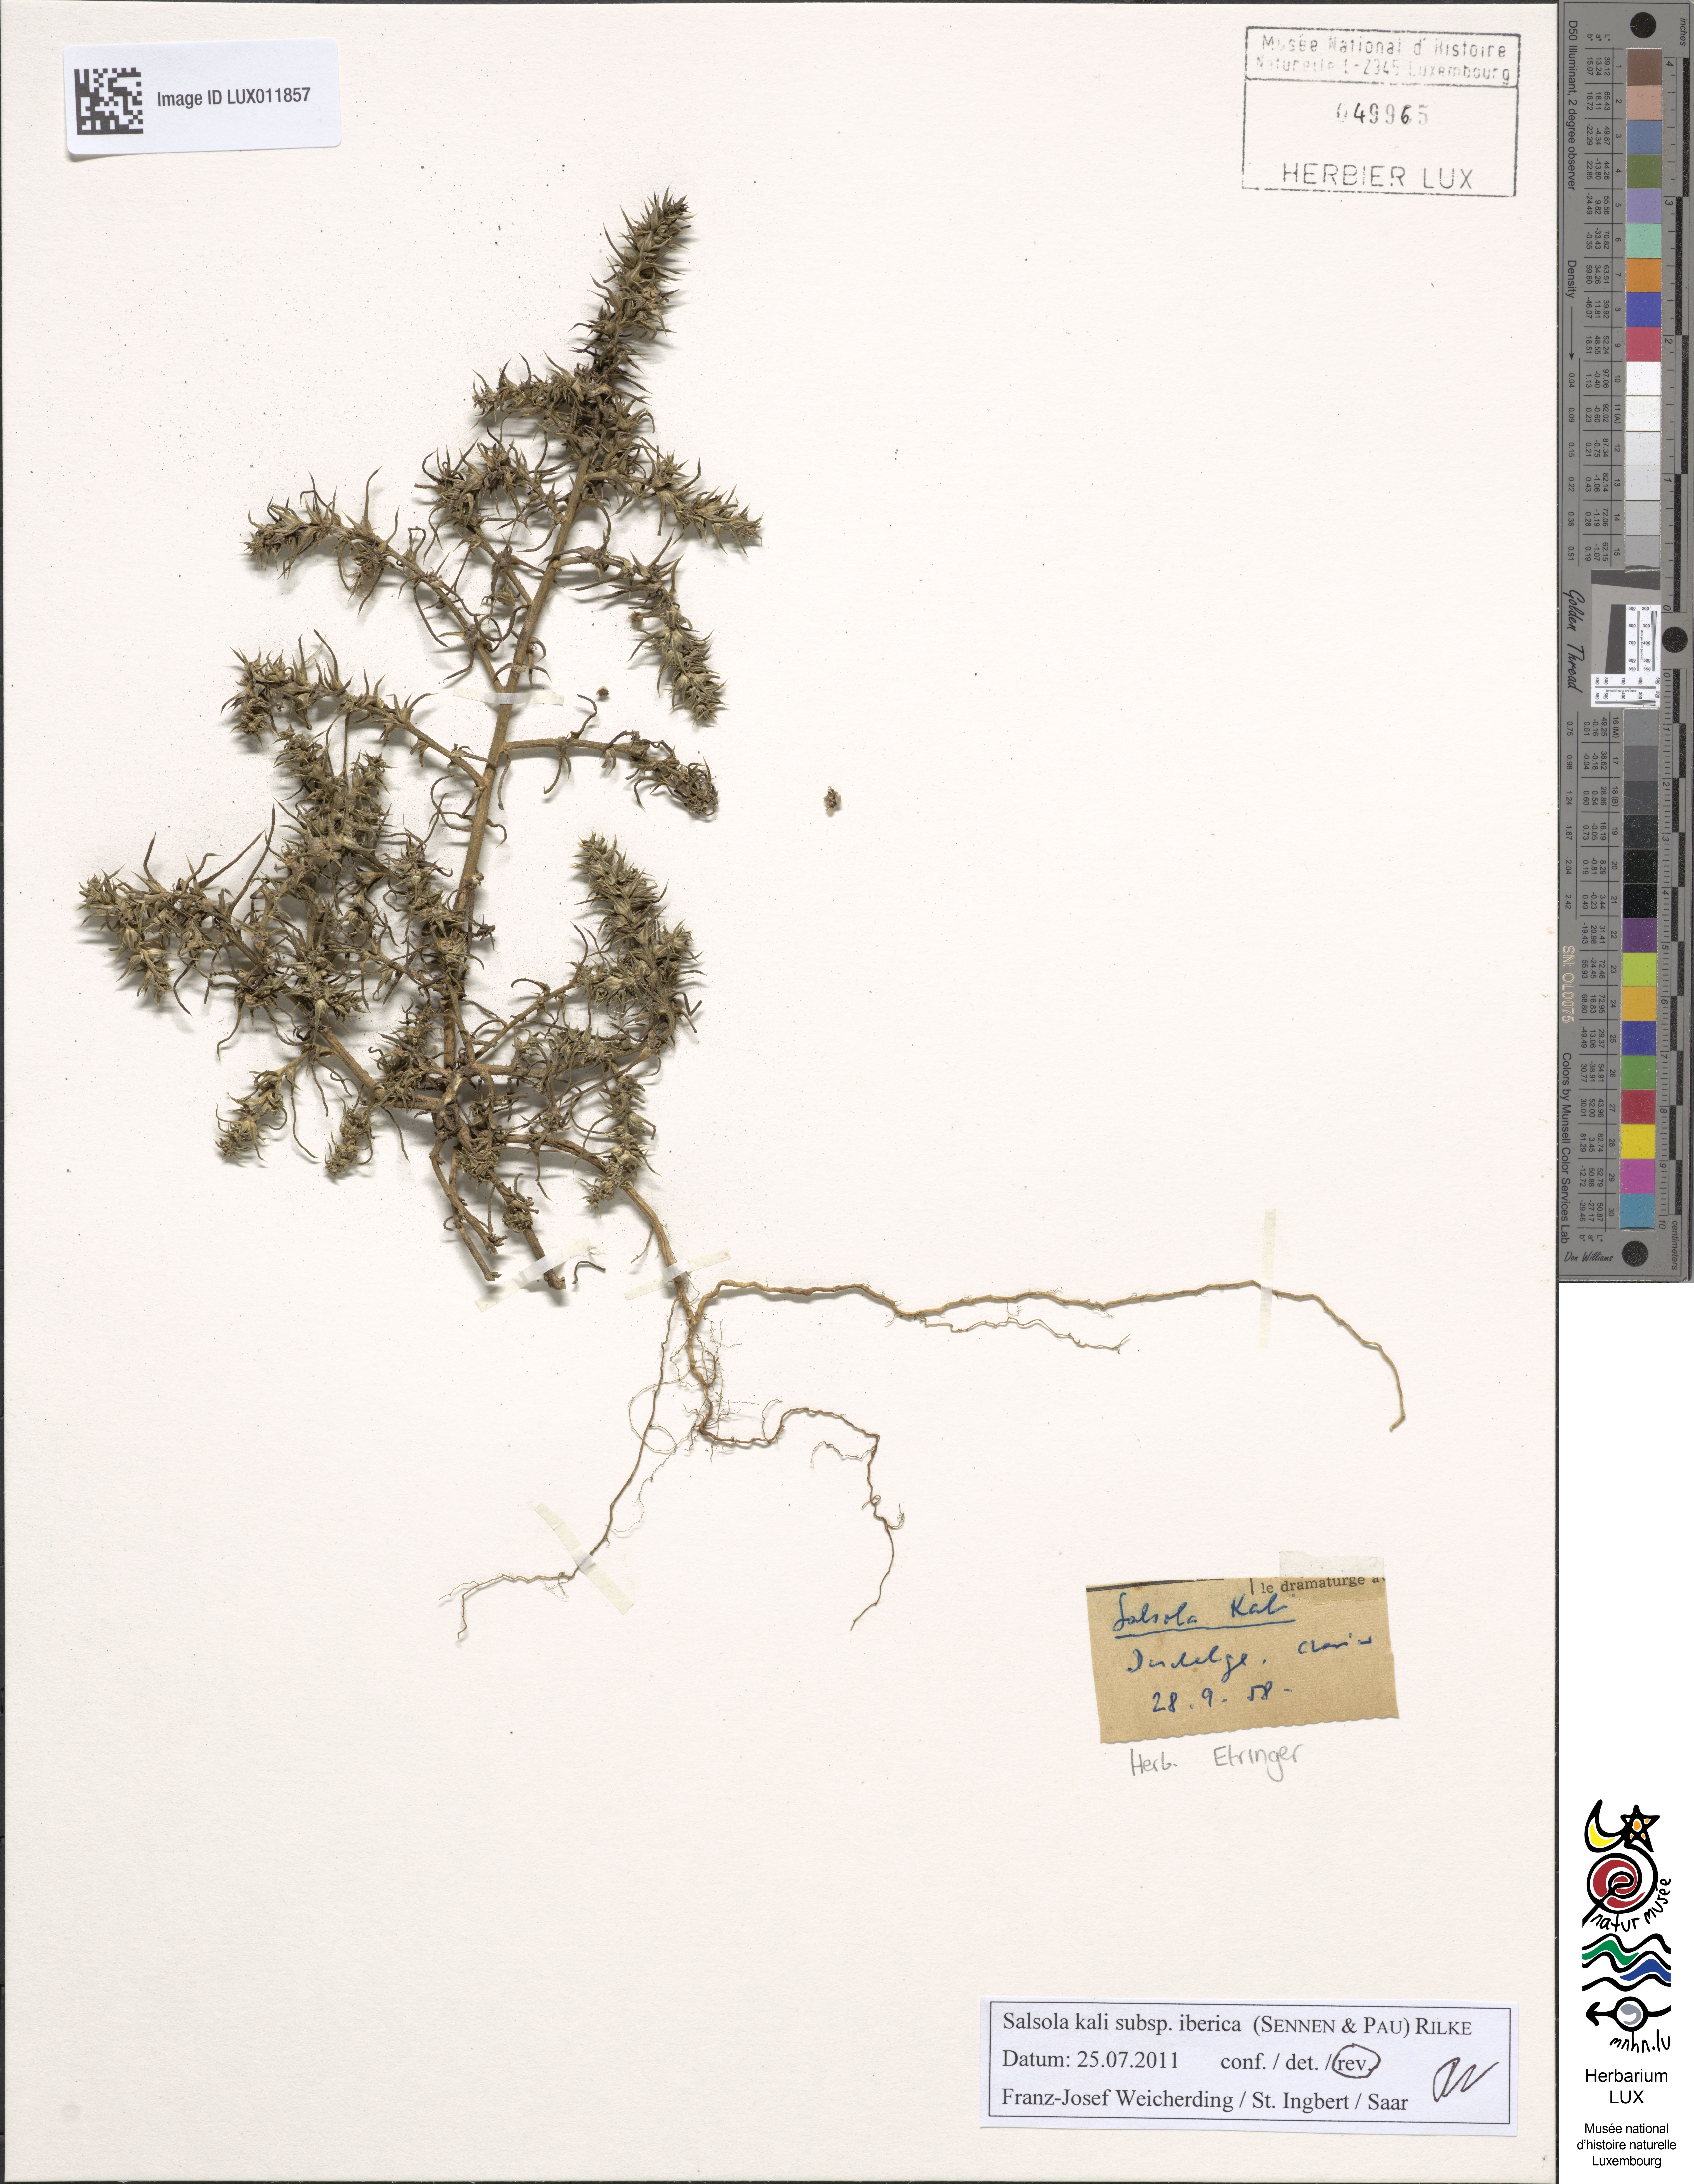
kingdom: Plantae
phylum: Tracheophyta
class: Magnoliopsida
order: Caryophyllales
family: Amaranthaceae
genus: Salsola
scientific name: Salsola kali
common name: Saltwort
